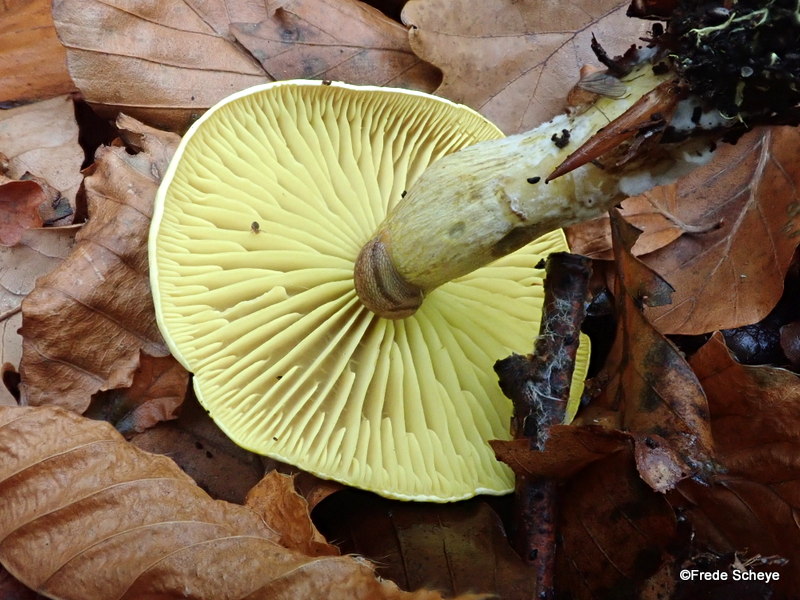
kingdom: Fungi
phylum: Basidiomycota
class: Agaricomycetes
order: Agaricales
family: Tricholomataceae
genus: Tricholoma
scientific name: Tricholoma sulphureum
